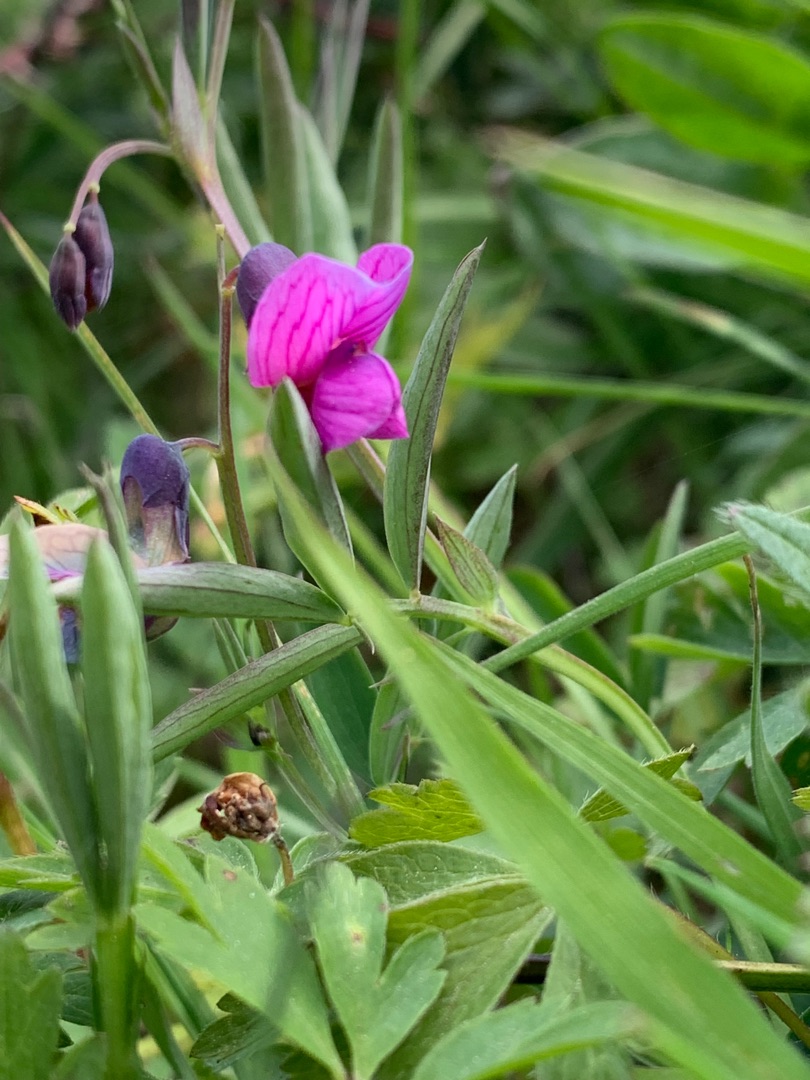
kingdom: Plantae
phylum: Tracheophyta
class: Magnoliopsida
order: Fabales
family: Fabaceae
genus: Lathyrus
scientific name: Lathyrus linifolius
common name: Krat-fladbælg
